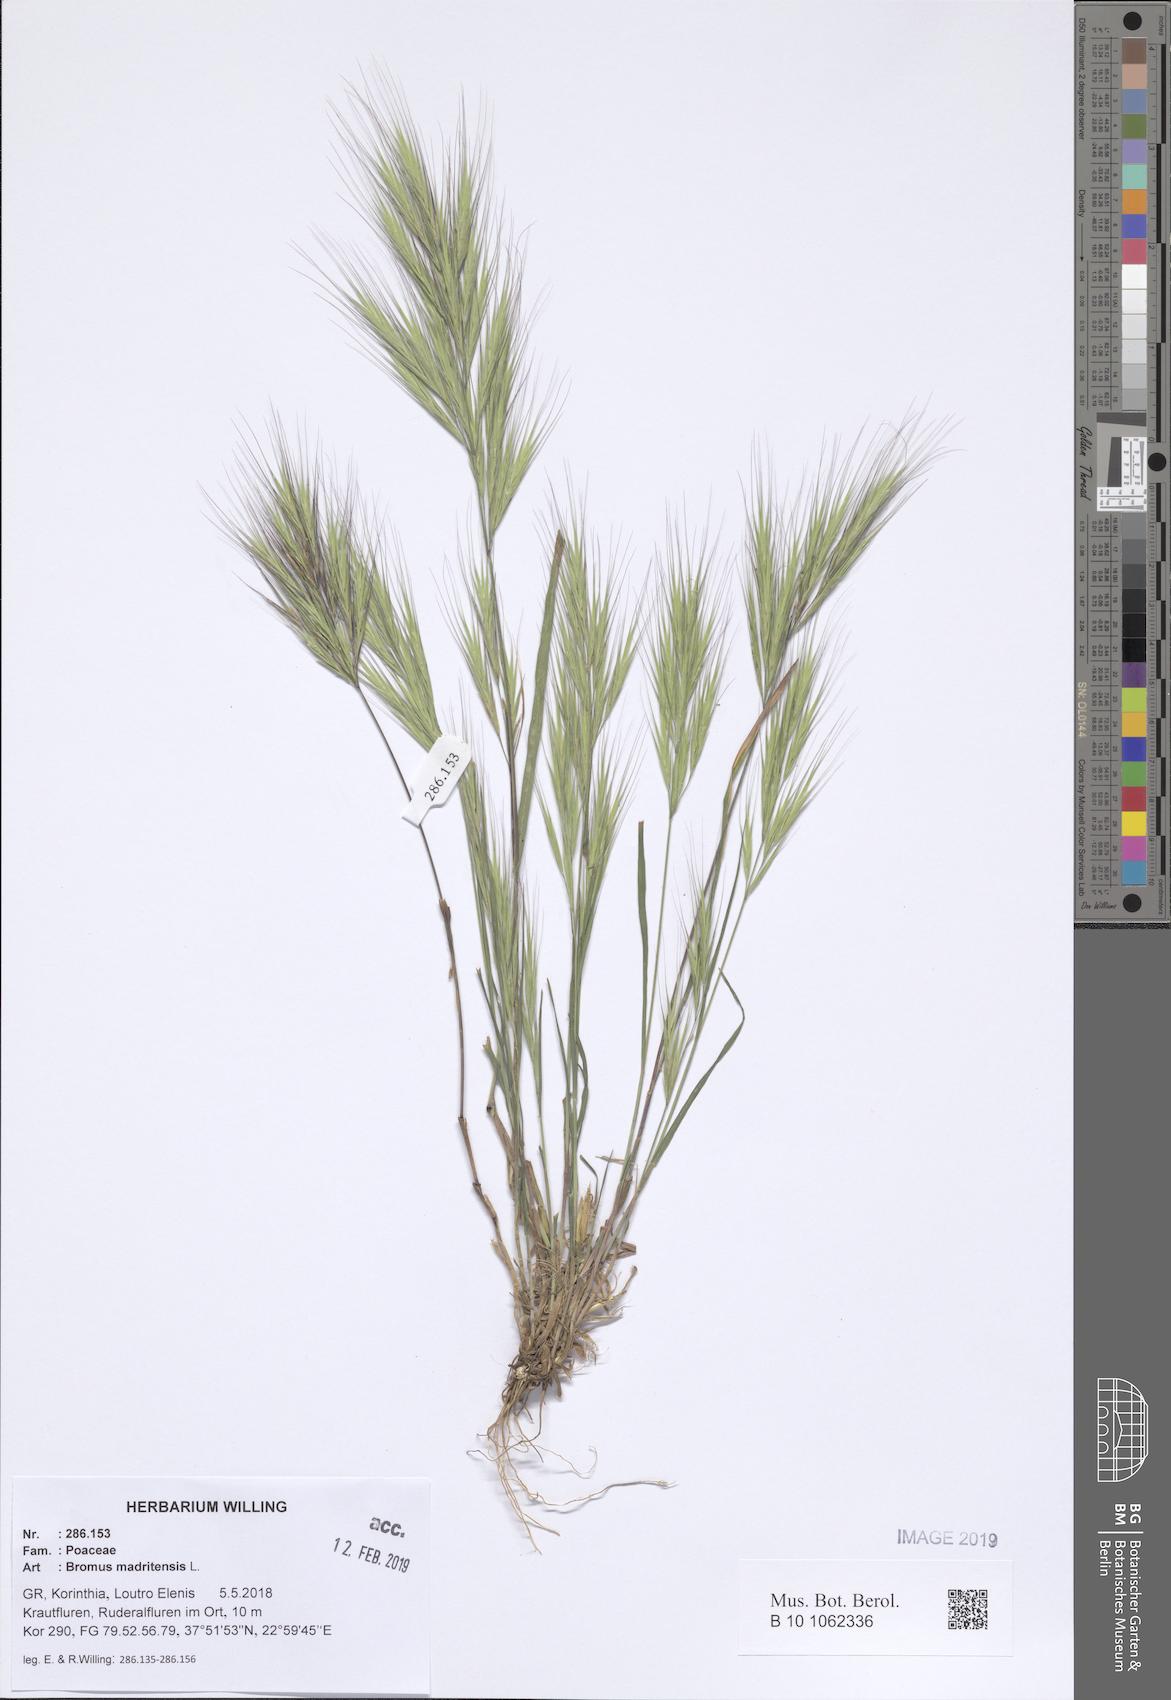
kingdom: Plantae
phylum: Tracheophyta
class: Liliopsida
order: Poales
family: Poaceae
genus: Bromus
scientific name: Bromus madritensis
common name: Compact brome
